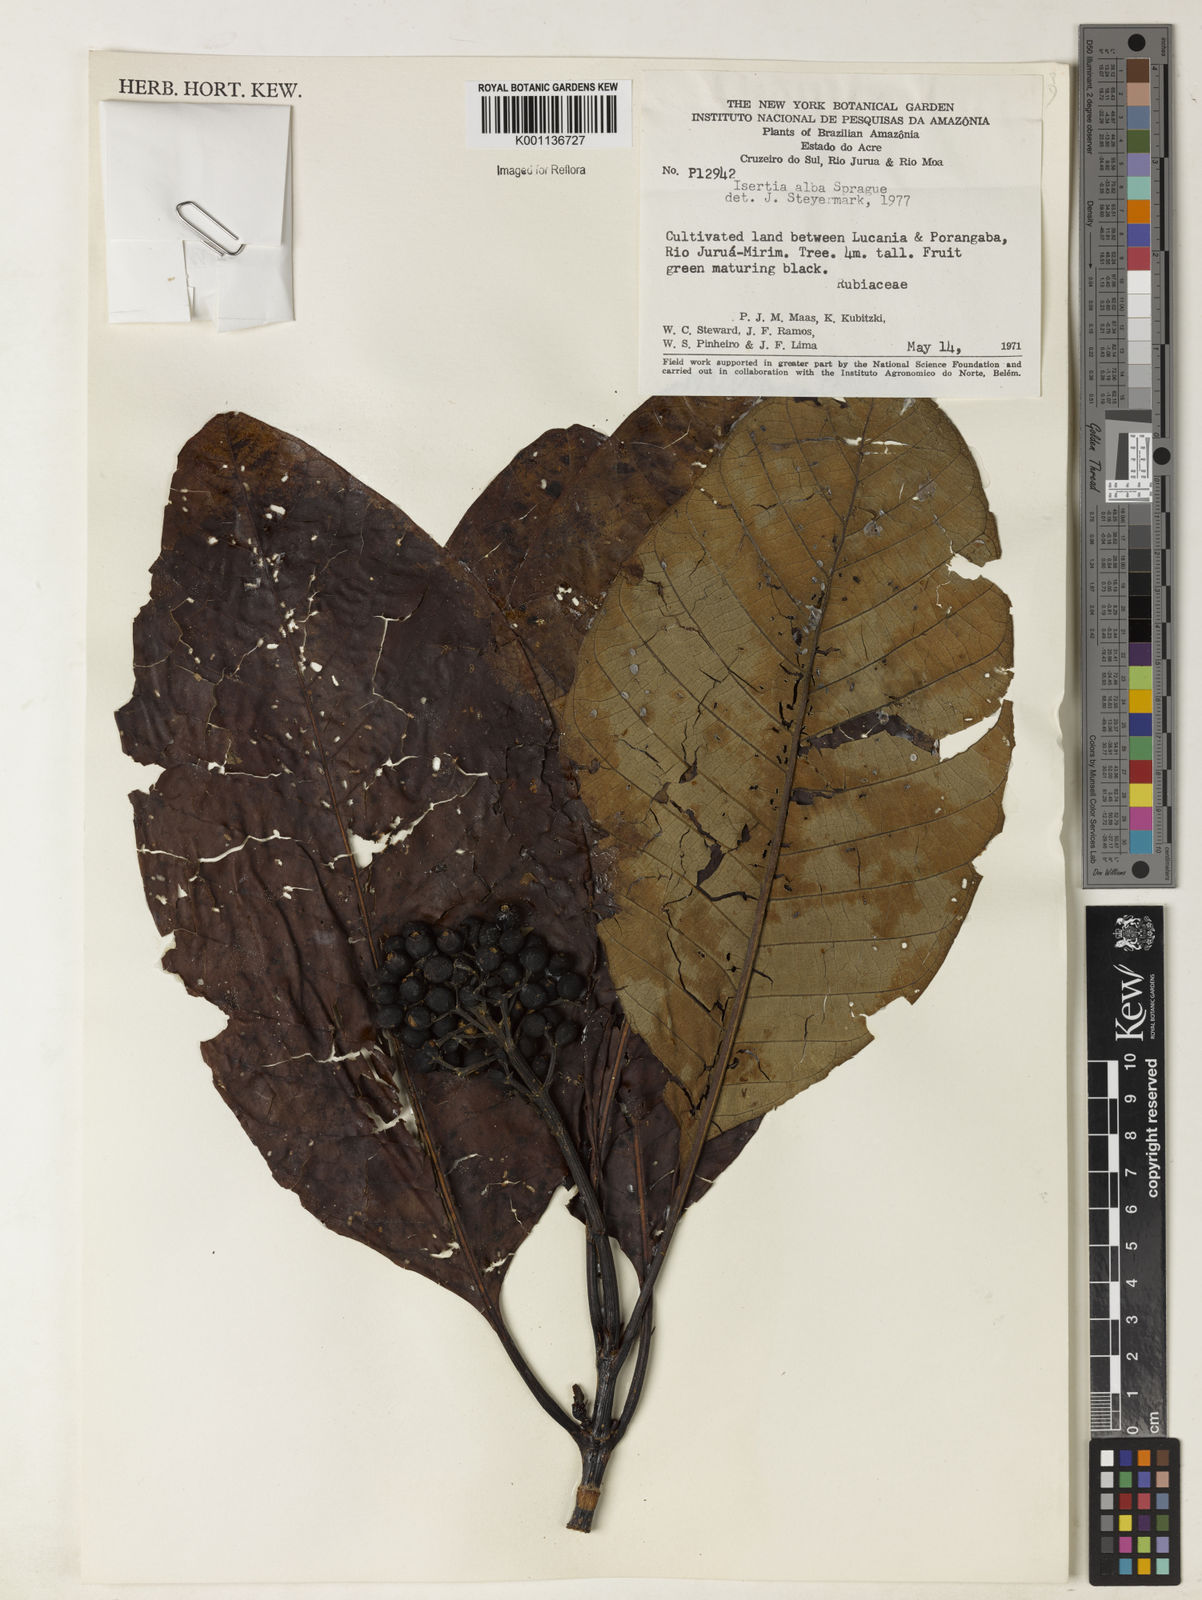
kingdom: Plantae
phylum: Tracheophyta
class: Magnoliopsida
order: Gentianales
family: Rubiaceae
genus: Isertia
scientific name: Isertia laevis
